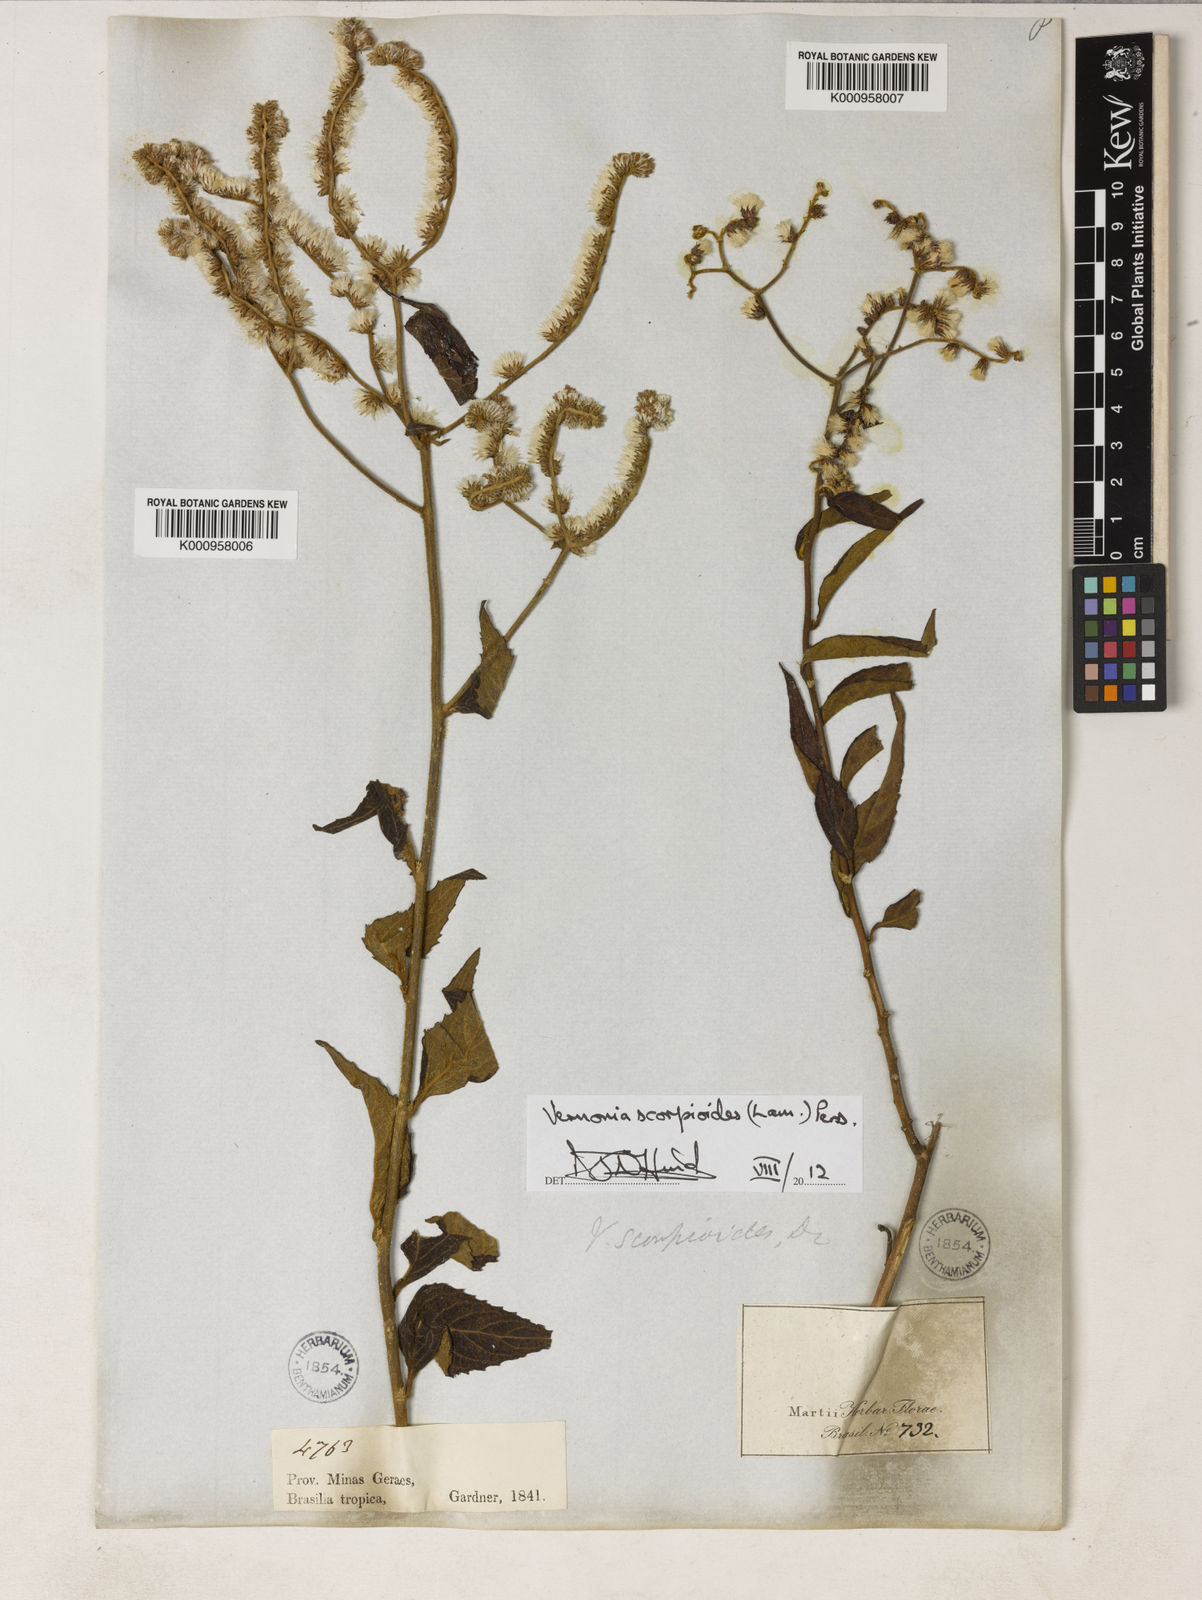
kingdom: Plantae
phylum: Tracheophyta
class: Magnoliopsida
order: Asterales
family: Asteraceae
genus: Cyrtocymura
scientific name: Cyrtocymura scorpioides
